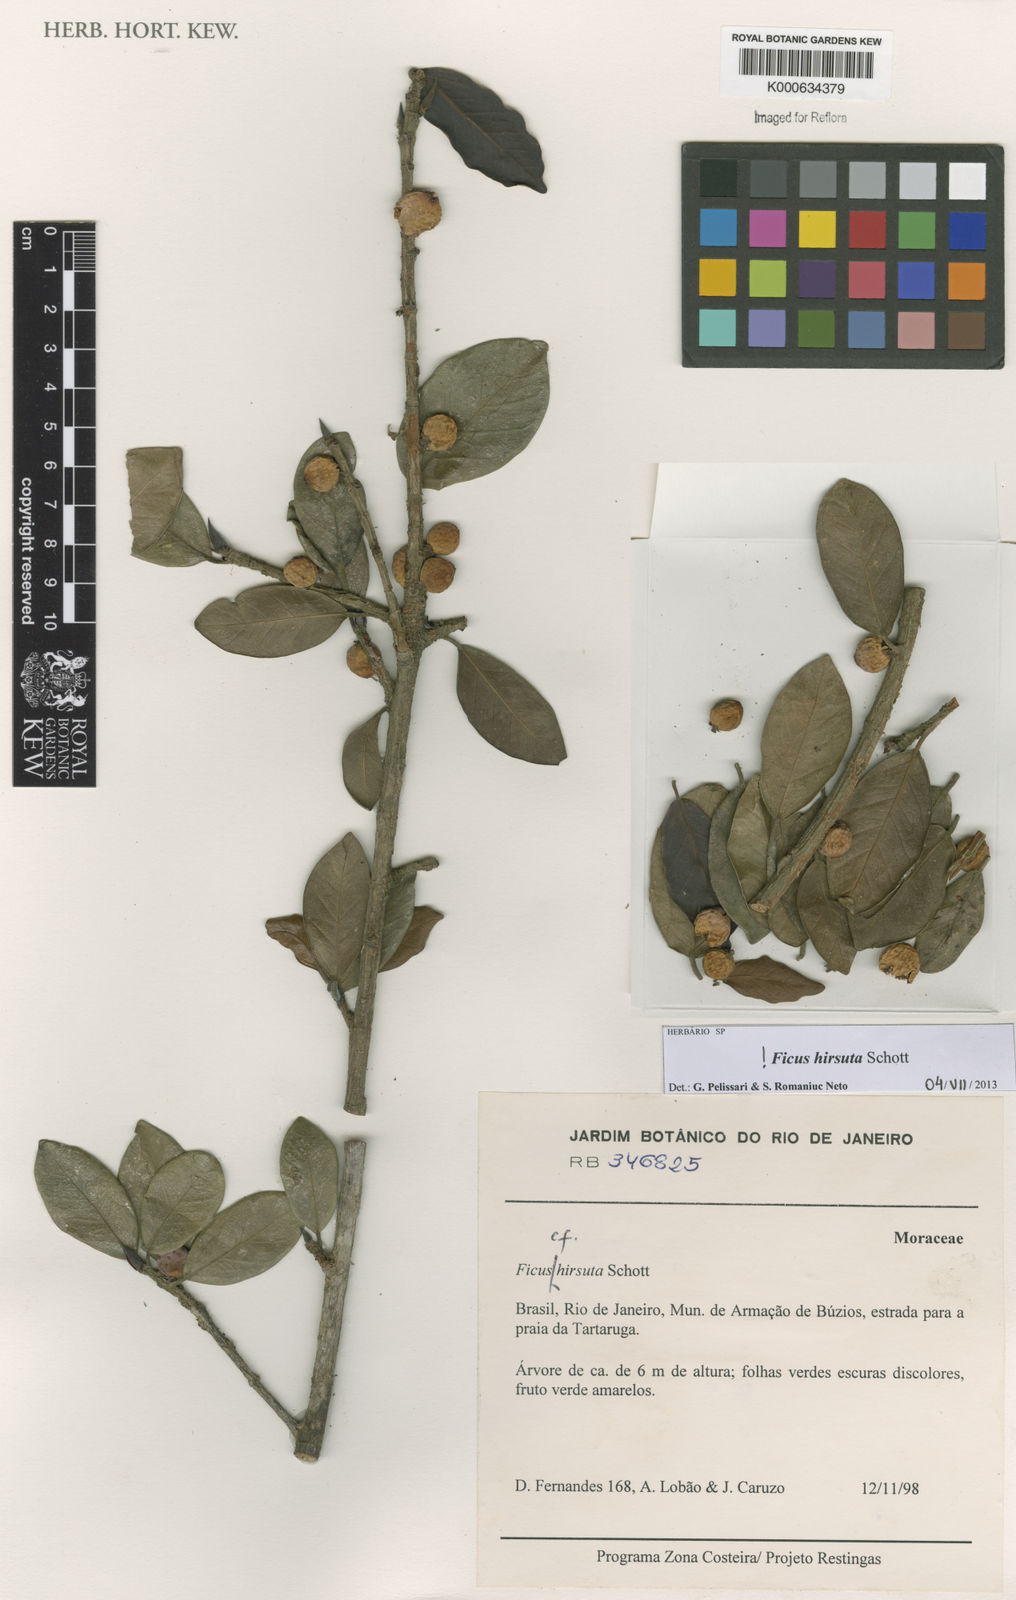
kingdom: Plantae
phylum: Tracheophyta
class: Magnoliopsida
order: Rosales
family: Moraceae
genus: Ficus
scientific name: Ficus hirsuta
